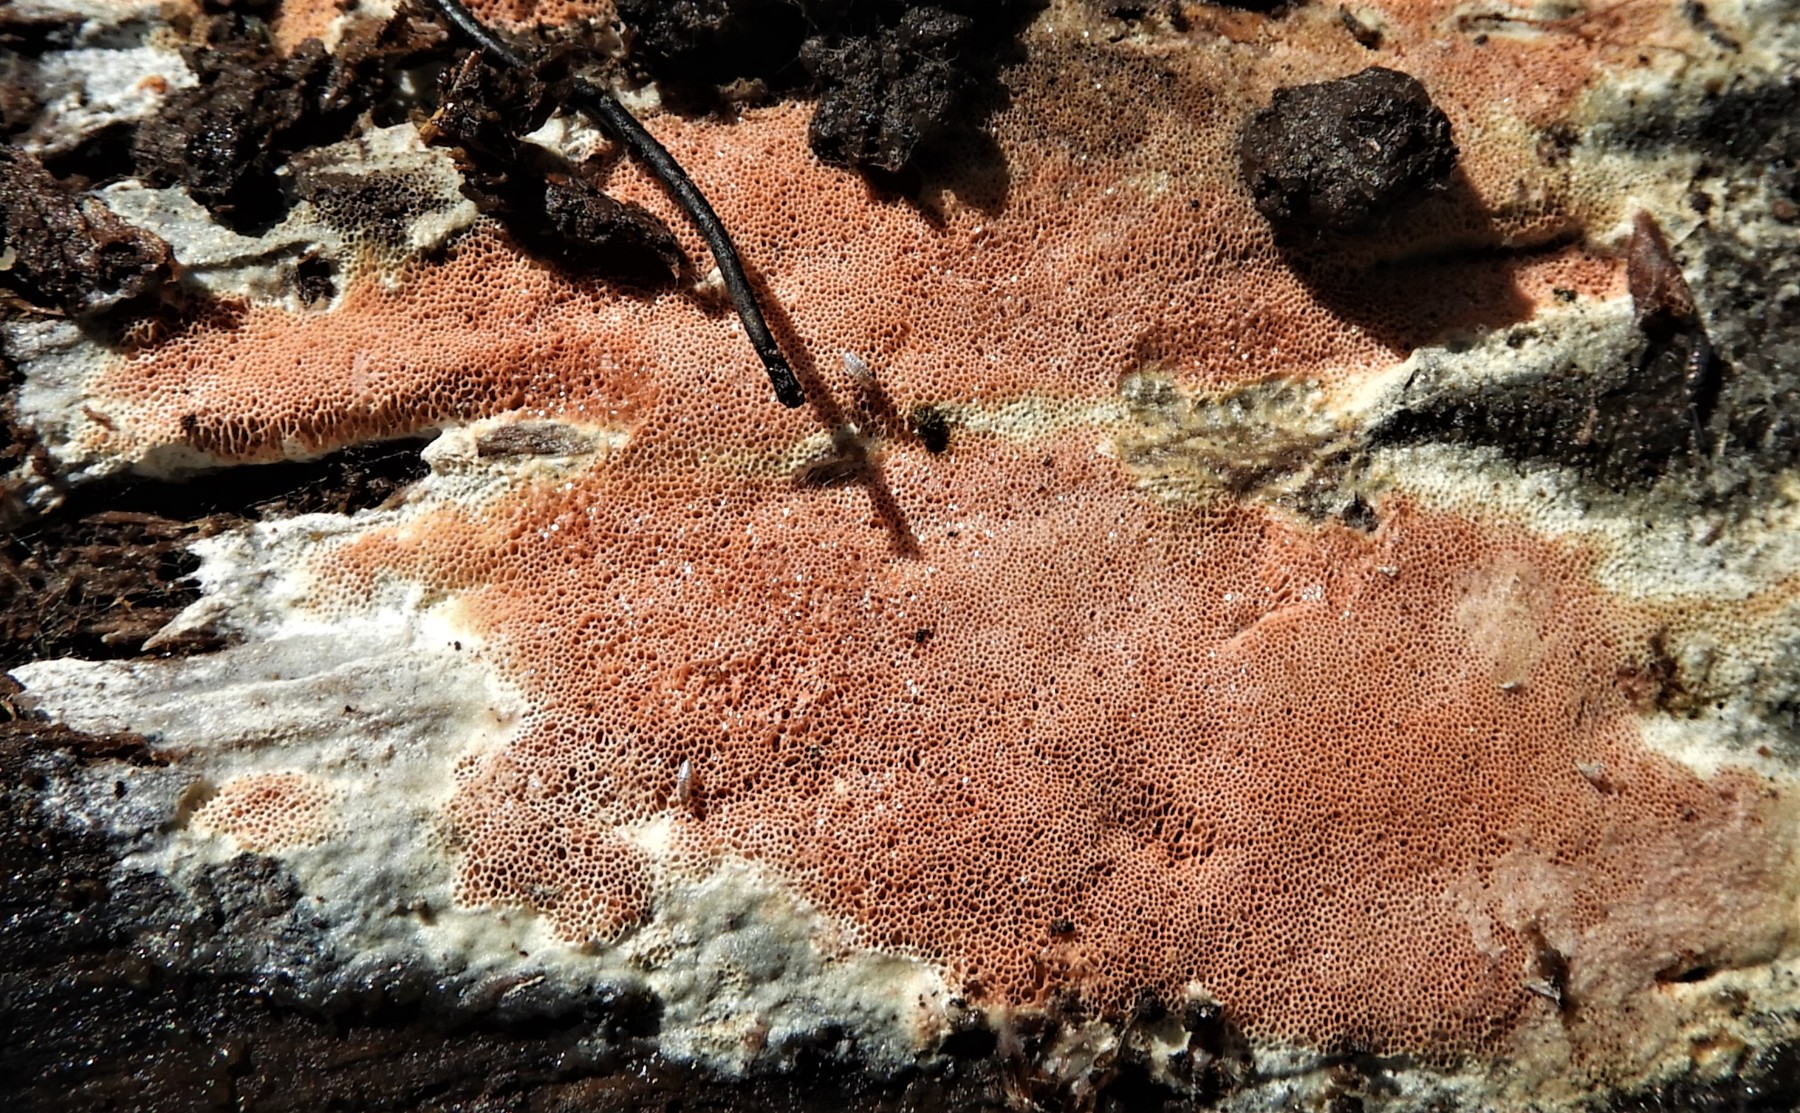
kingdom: Fungi
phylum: Basidiomycota
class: Agaricomycetes
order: Polyporales
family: Irpicaceae
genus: Meruliopsis
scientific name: Meruliopsis taxicola
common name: purpurbrun foldporesvamp
